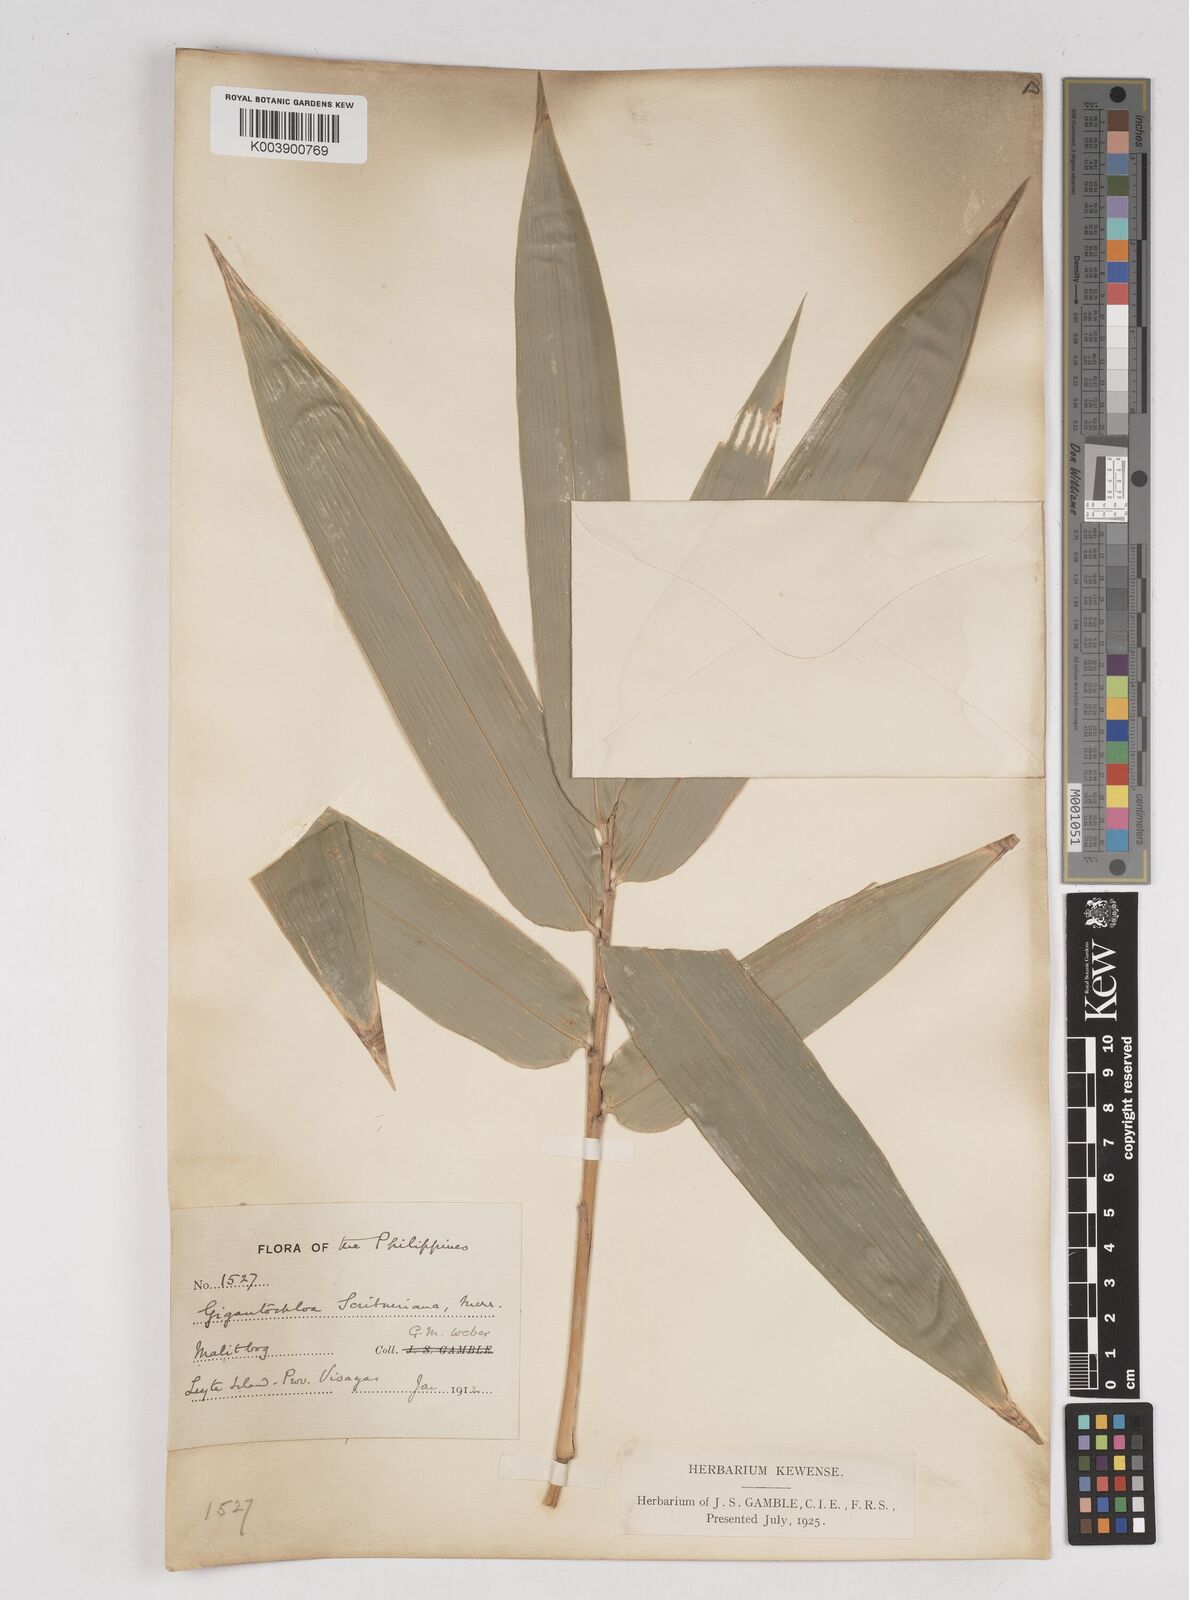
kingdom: Plantae
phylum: Tracheophyta
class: Liliopsida
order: Poales
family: Poaceae
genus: Gigantochloa
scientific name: Gigantochloa levis
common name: Smooth-shoot gigantochloa
